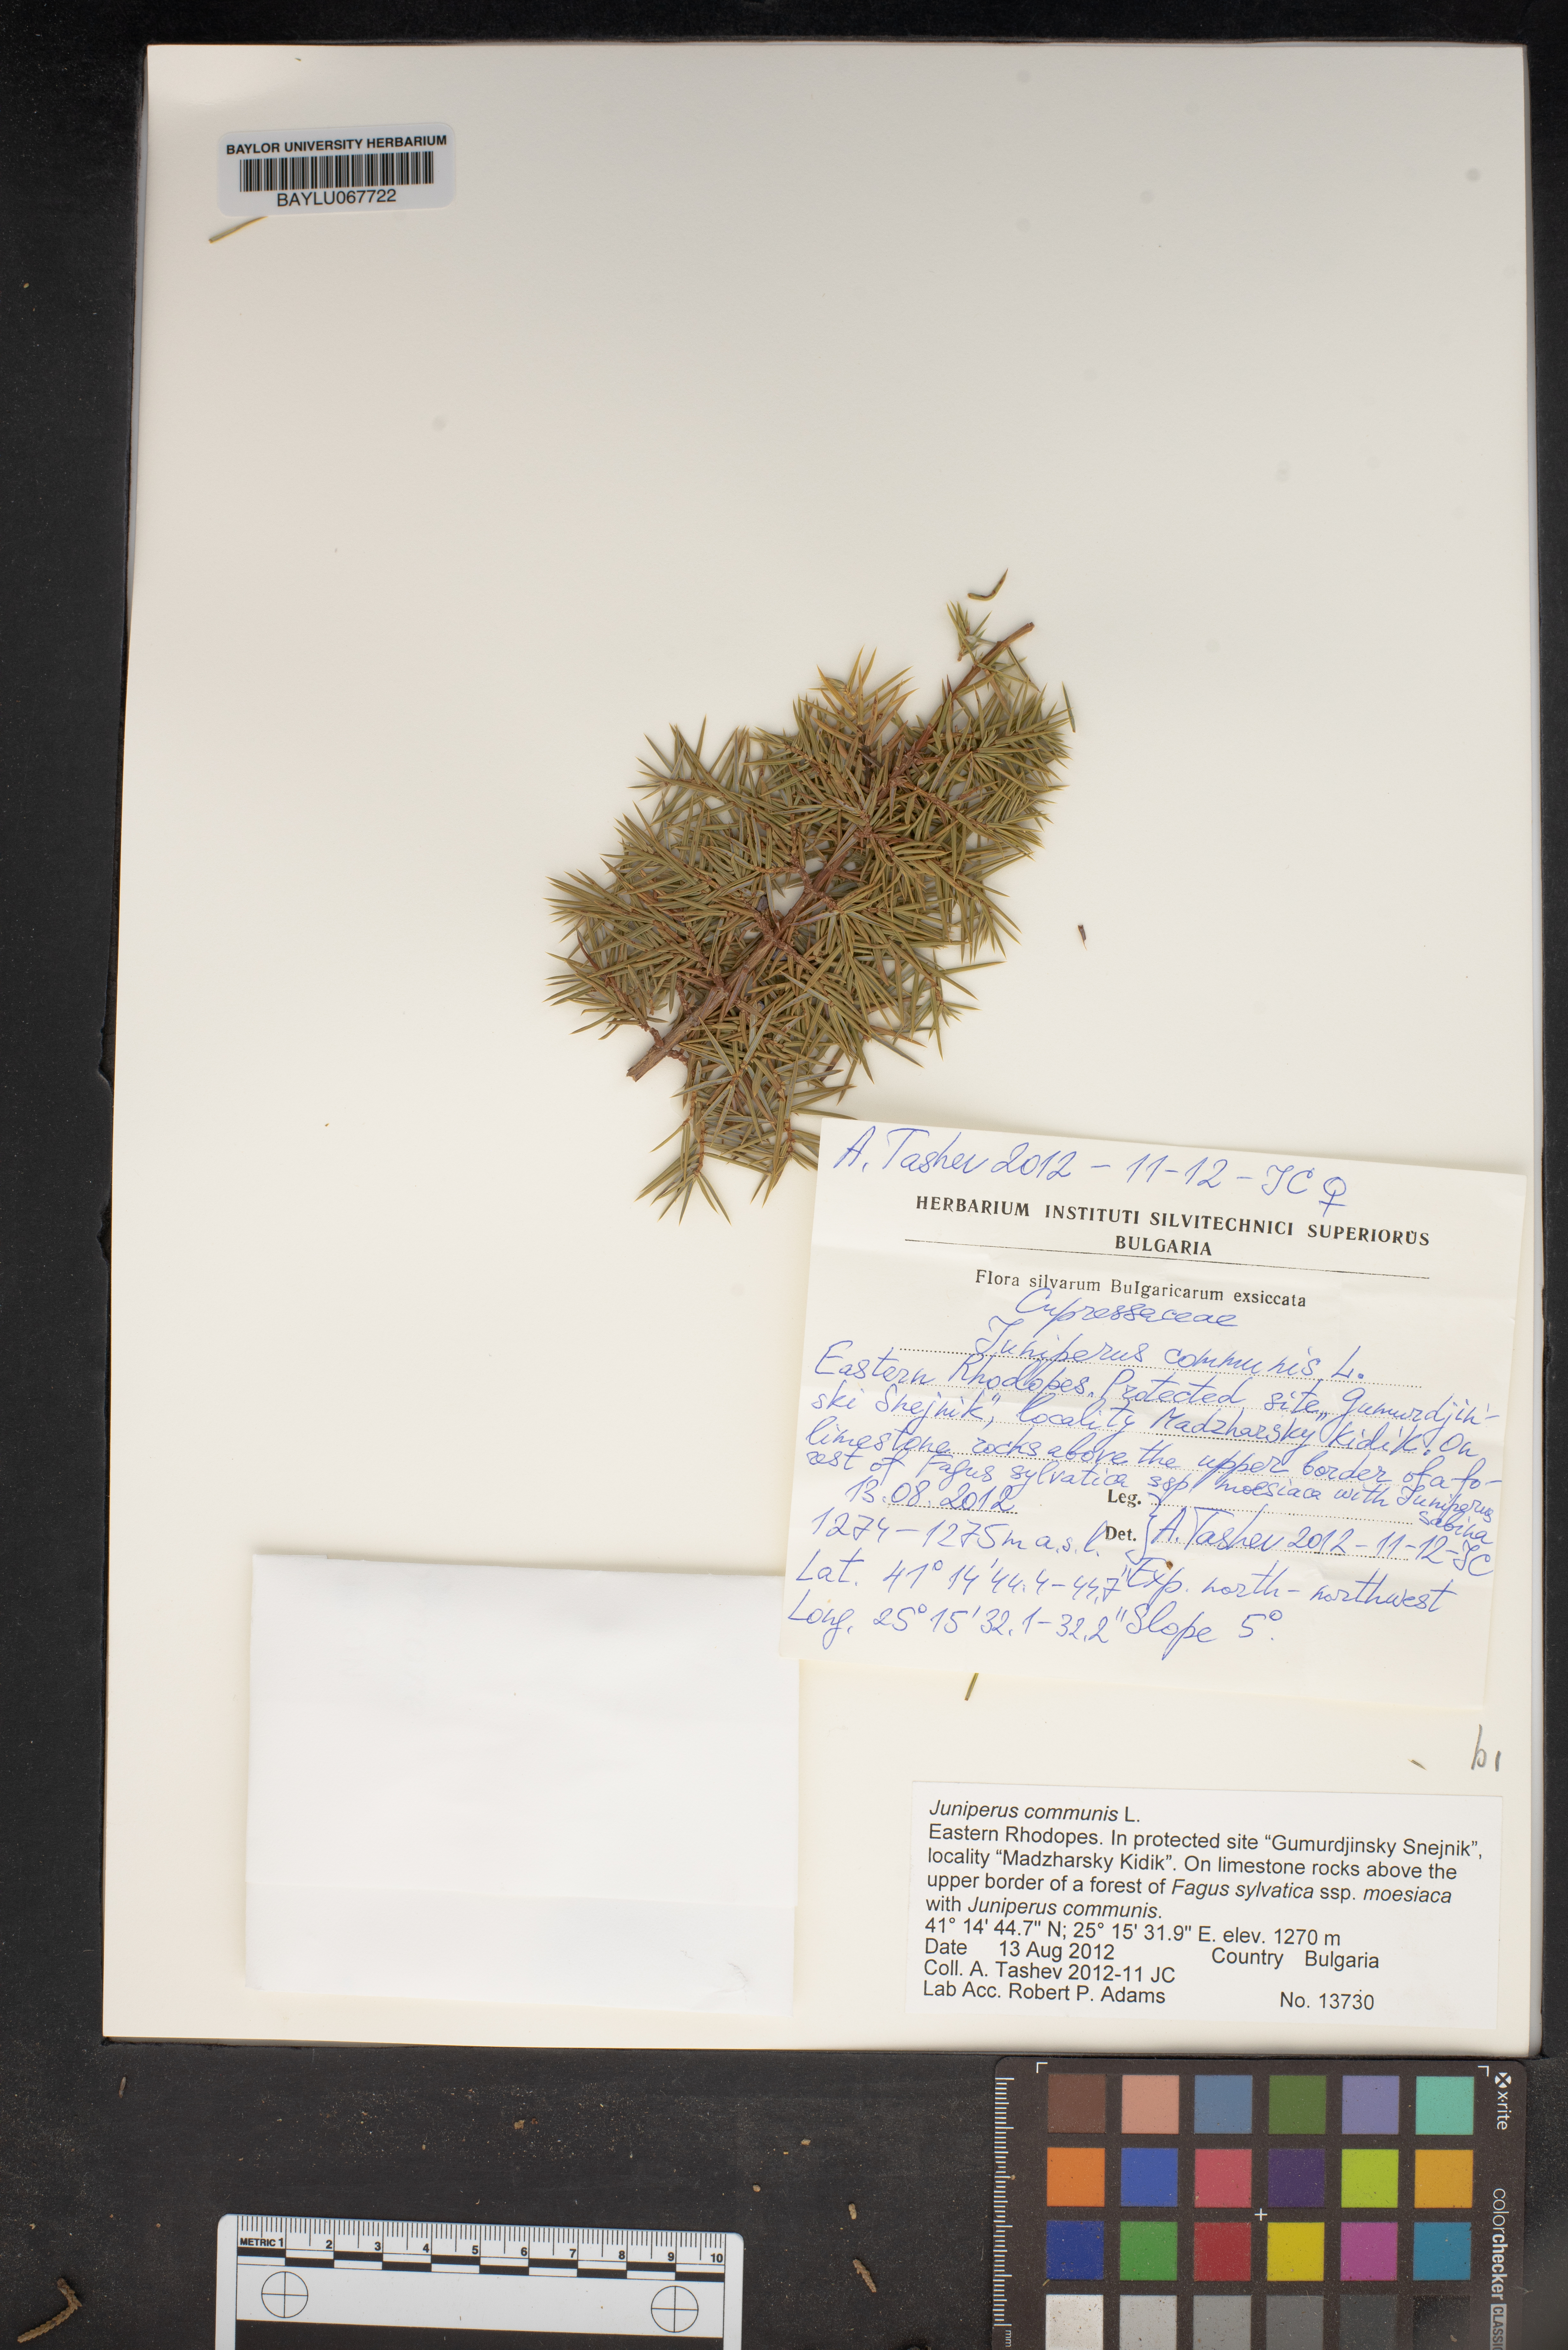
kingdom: Plantae
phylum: Tracheophyta
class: Pinopsida
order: Pinales
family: Cupressaceae
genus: Juniperus
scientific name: Juniperus communis
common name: Common juniper
